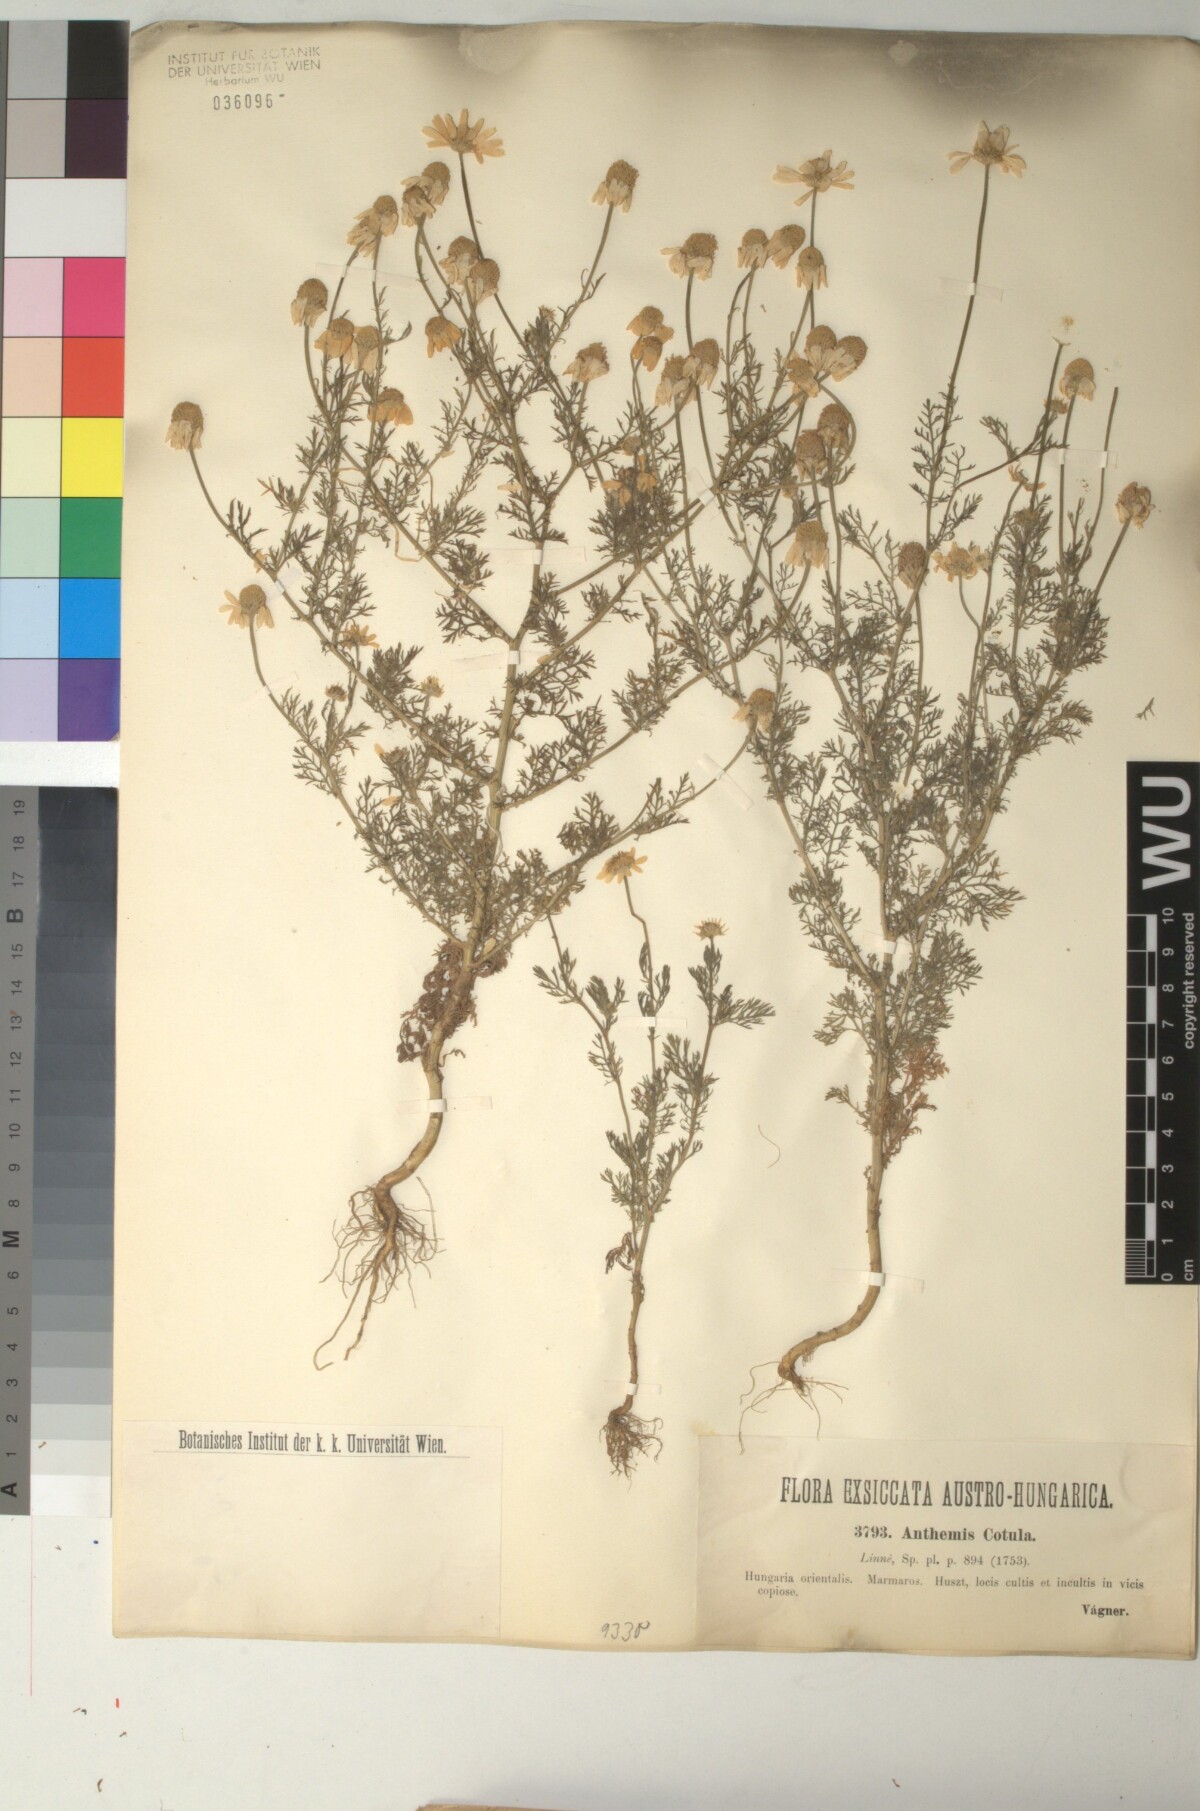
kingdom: Plantae
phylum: Tracheophyta
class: Magnoliopsida
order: Asterales
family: Asteraceae
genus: Anthemis
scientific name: Anthemis cotula
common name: Stinking chamomile
